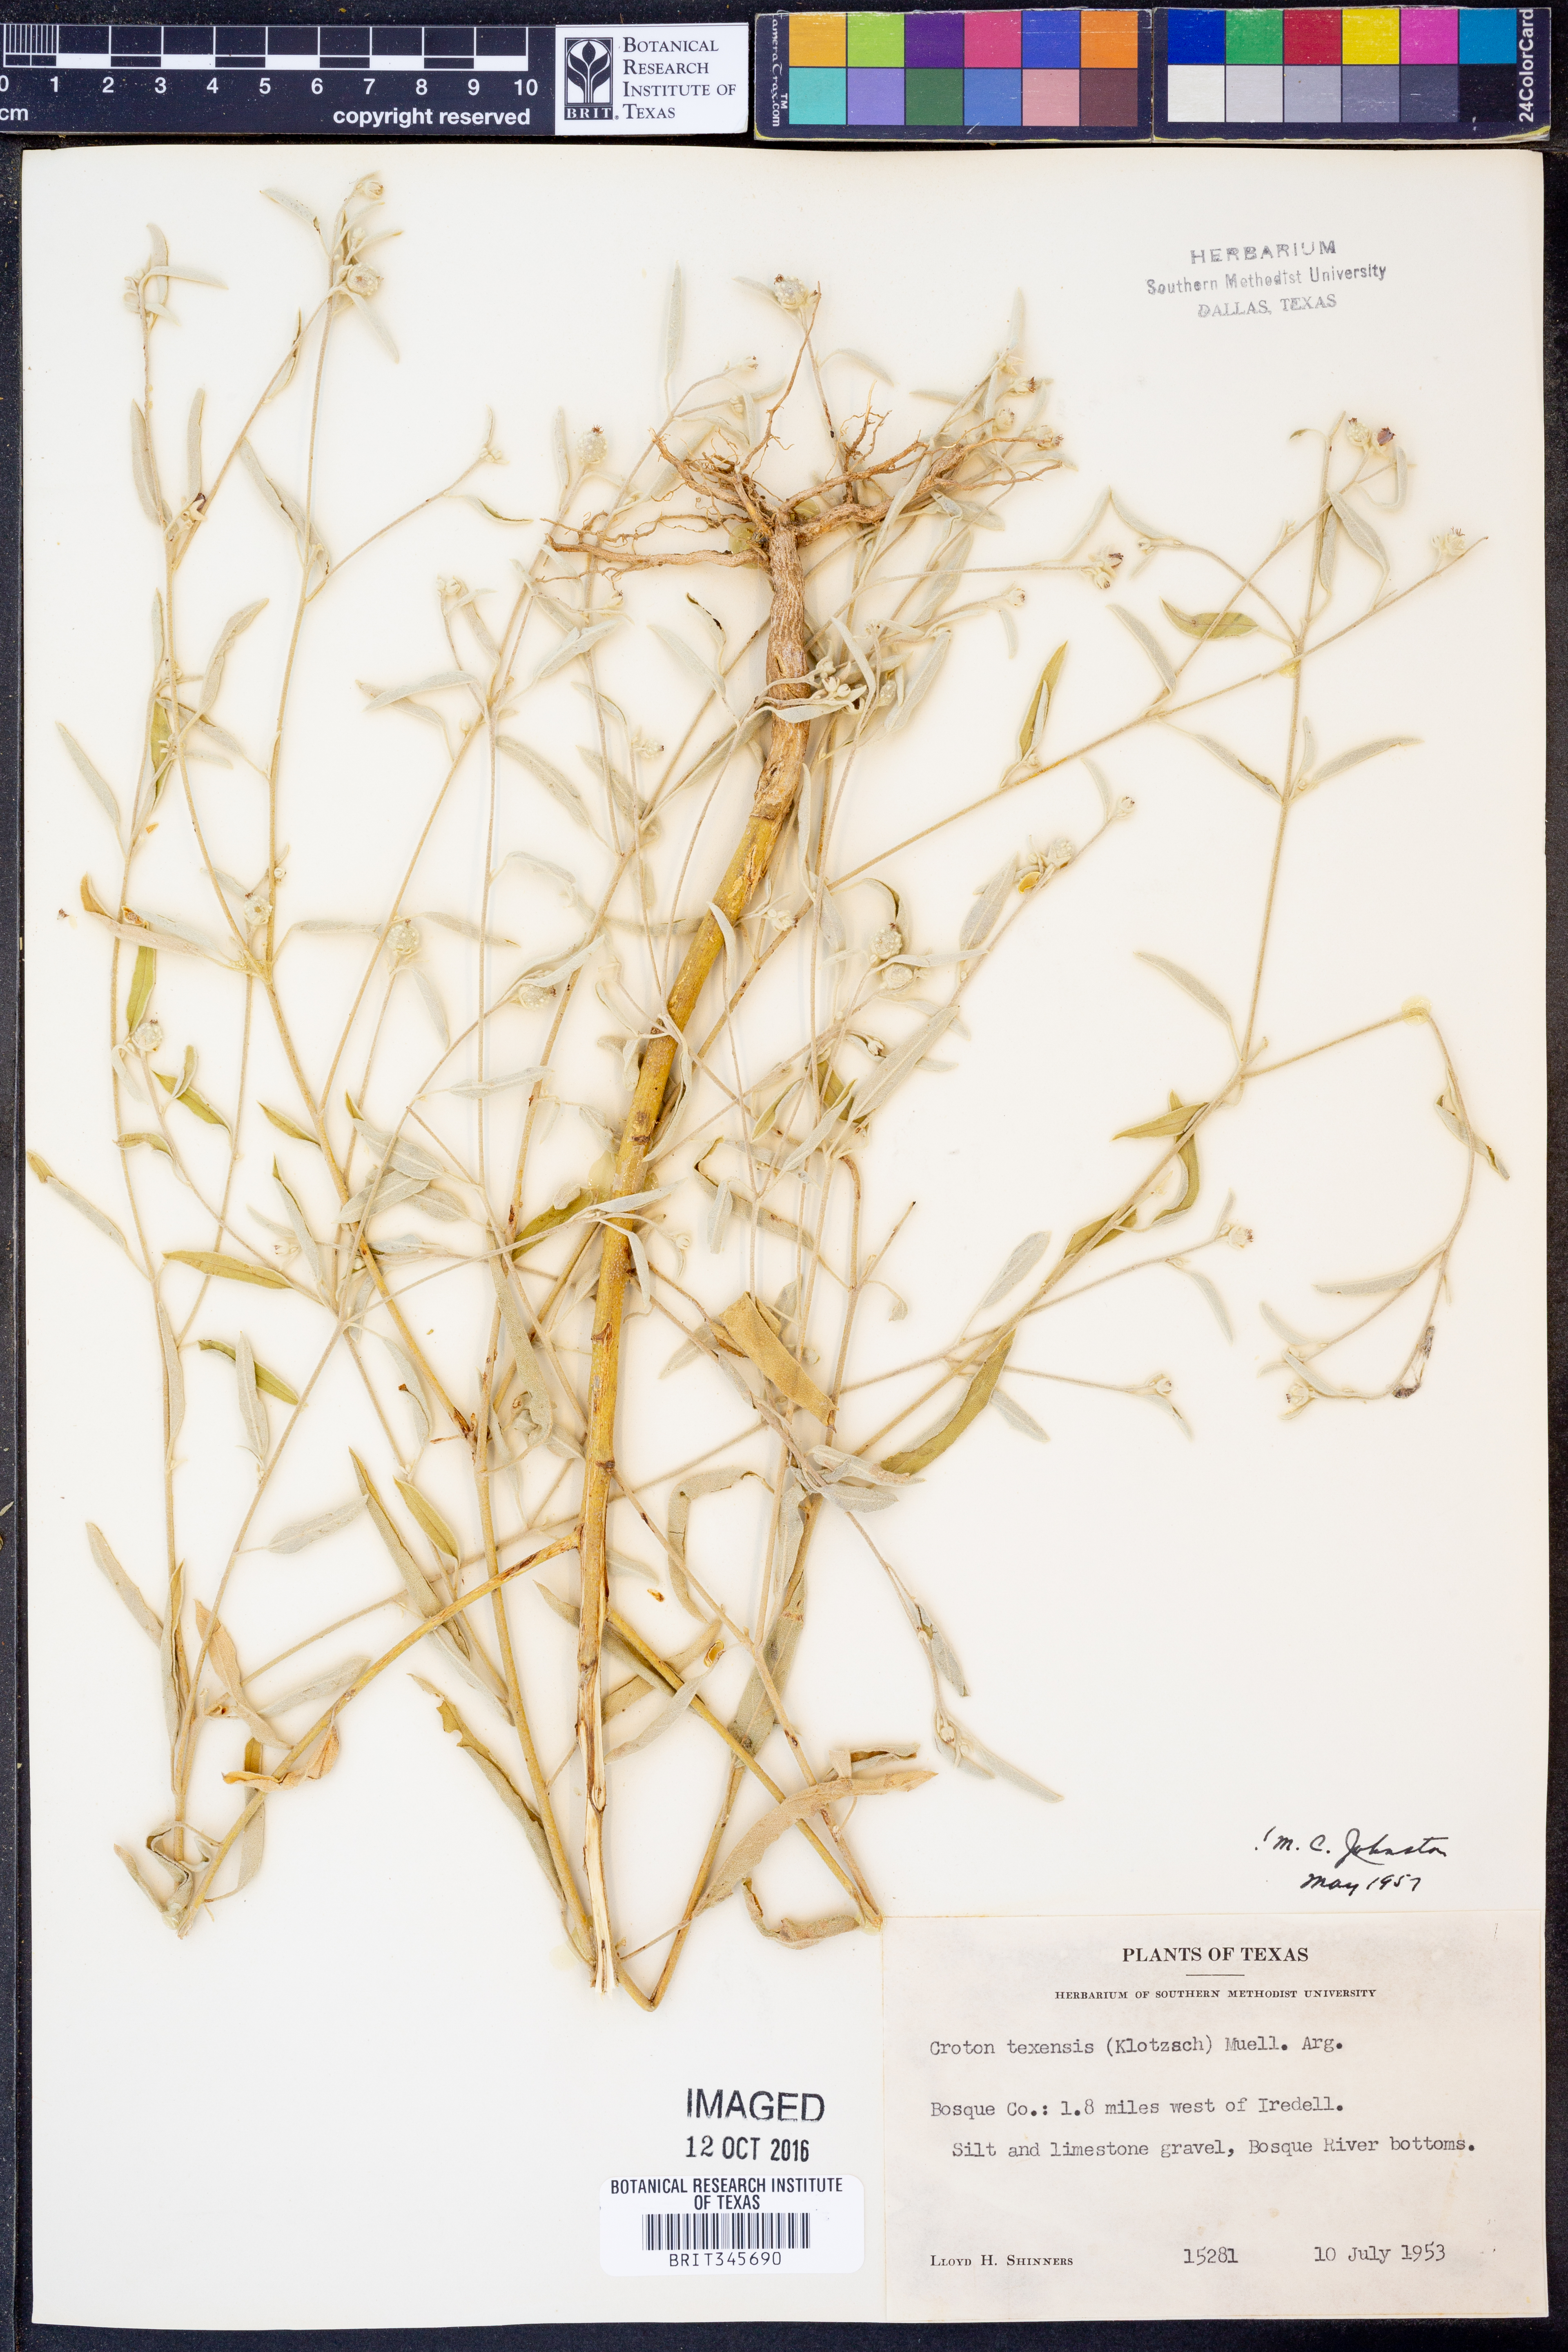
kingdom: Plantae
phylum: Tracheophyta
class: Magnoliopsida
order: Malpighiales
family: Euphorbiaceae
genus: Croton
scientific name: Croton texensis
